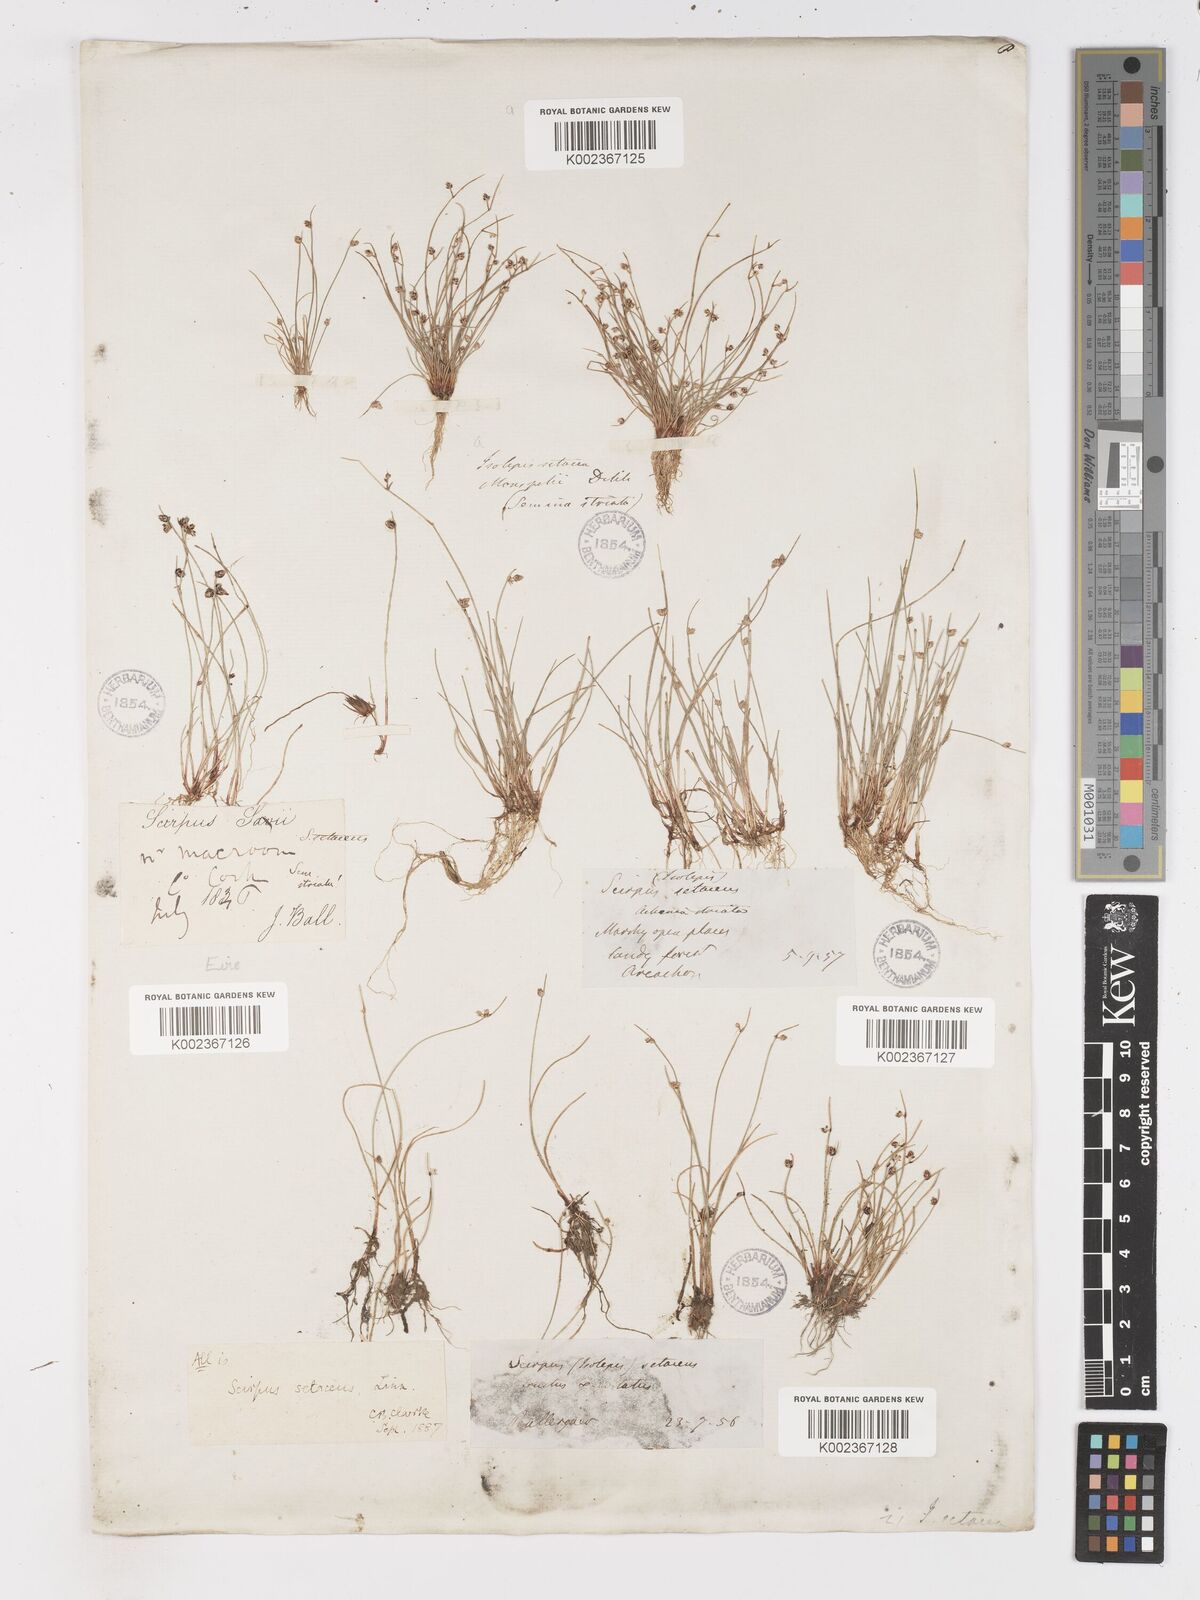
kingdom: Plantae
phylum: Tracheophyta
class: Liliopsida
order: Poales
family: Cyperaceae
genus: Isolepis
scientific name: Isolepis setacea
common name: Bristle club-rush
